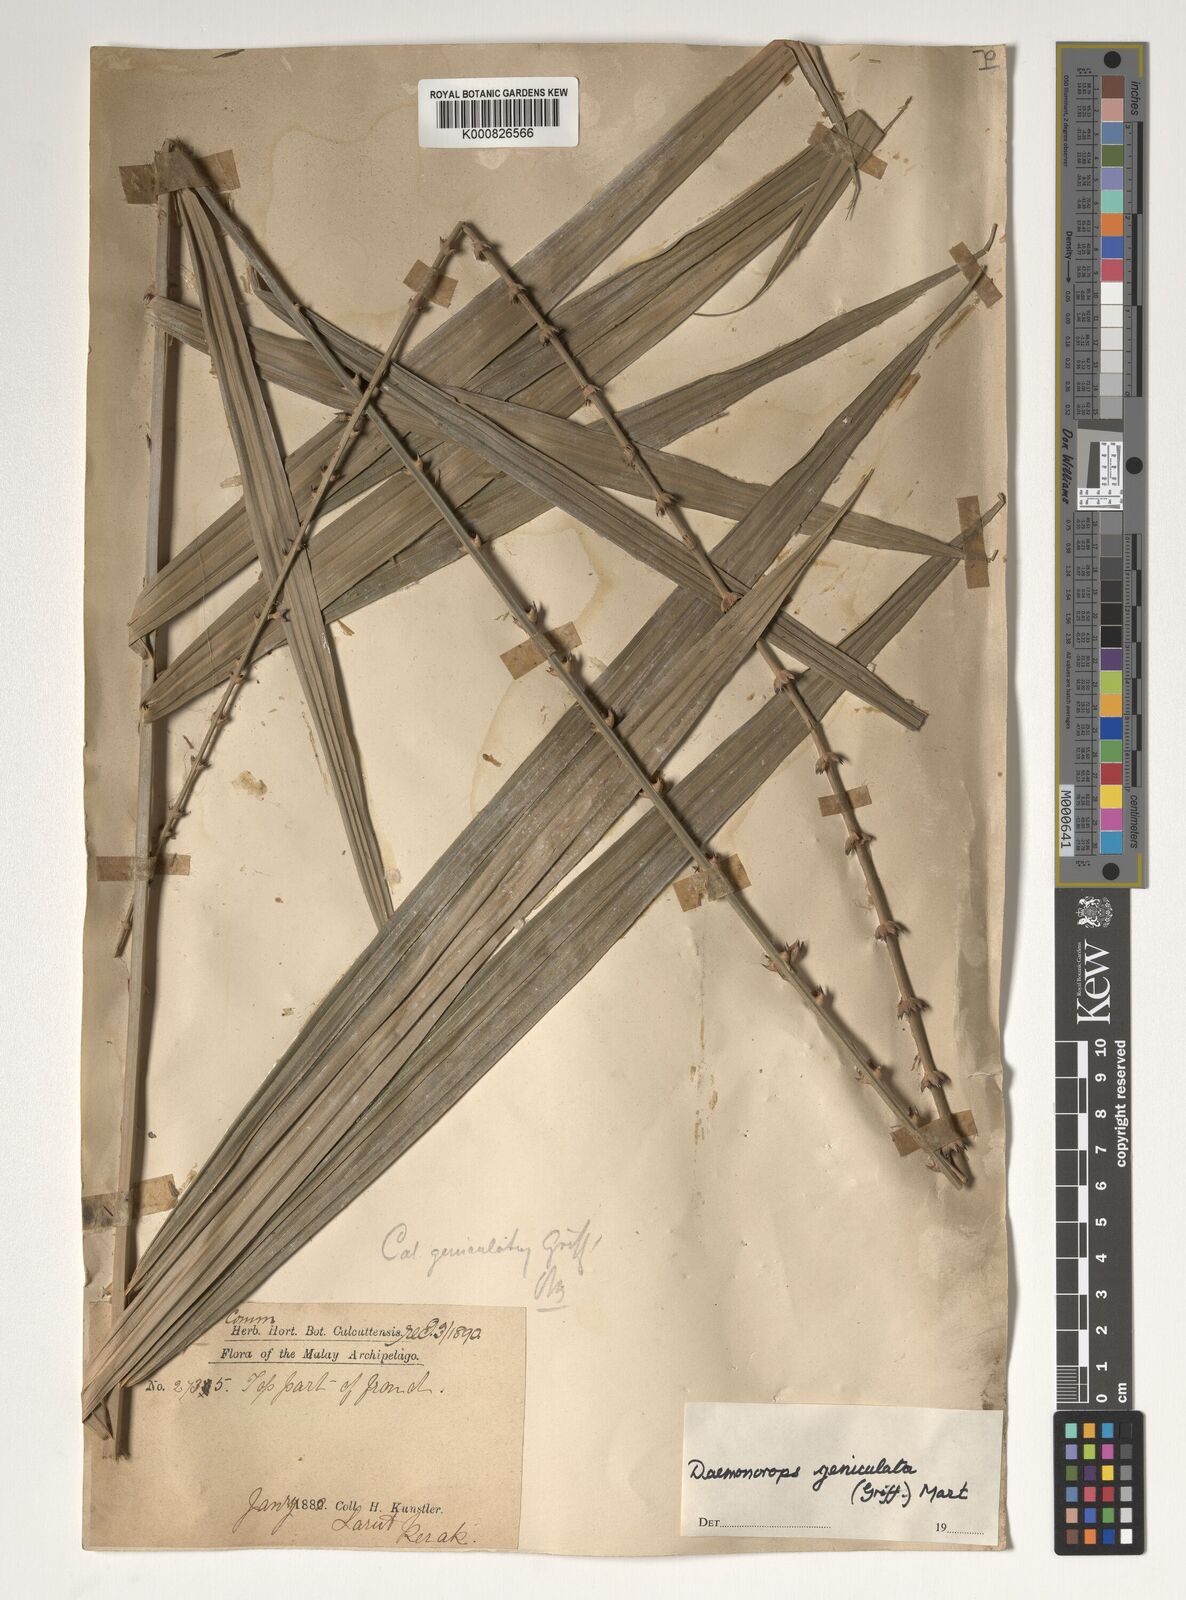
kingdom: Plantae
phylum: Tracheophyta
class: Liliopsida
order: Arecales
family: Arecaceae
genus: Calamus
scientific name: Calamus geniculatus
